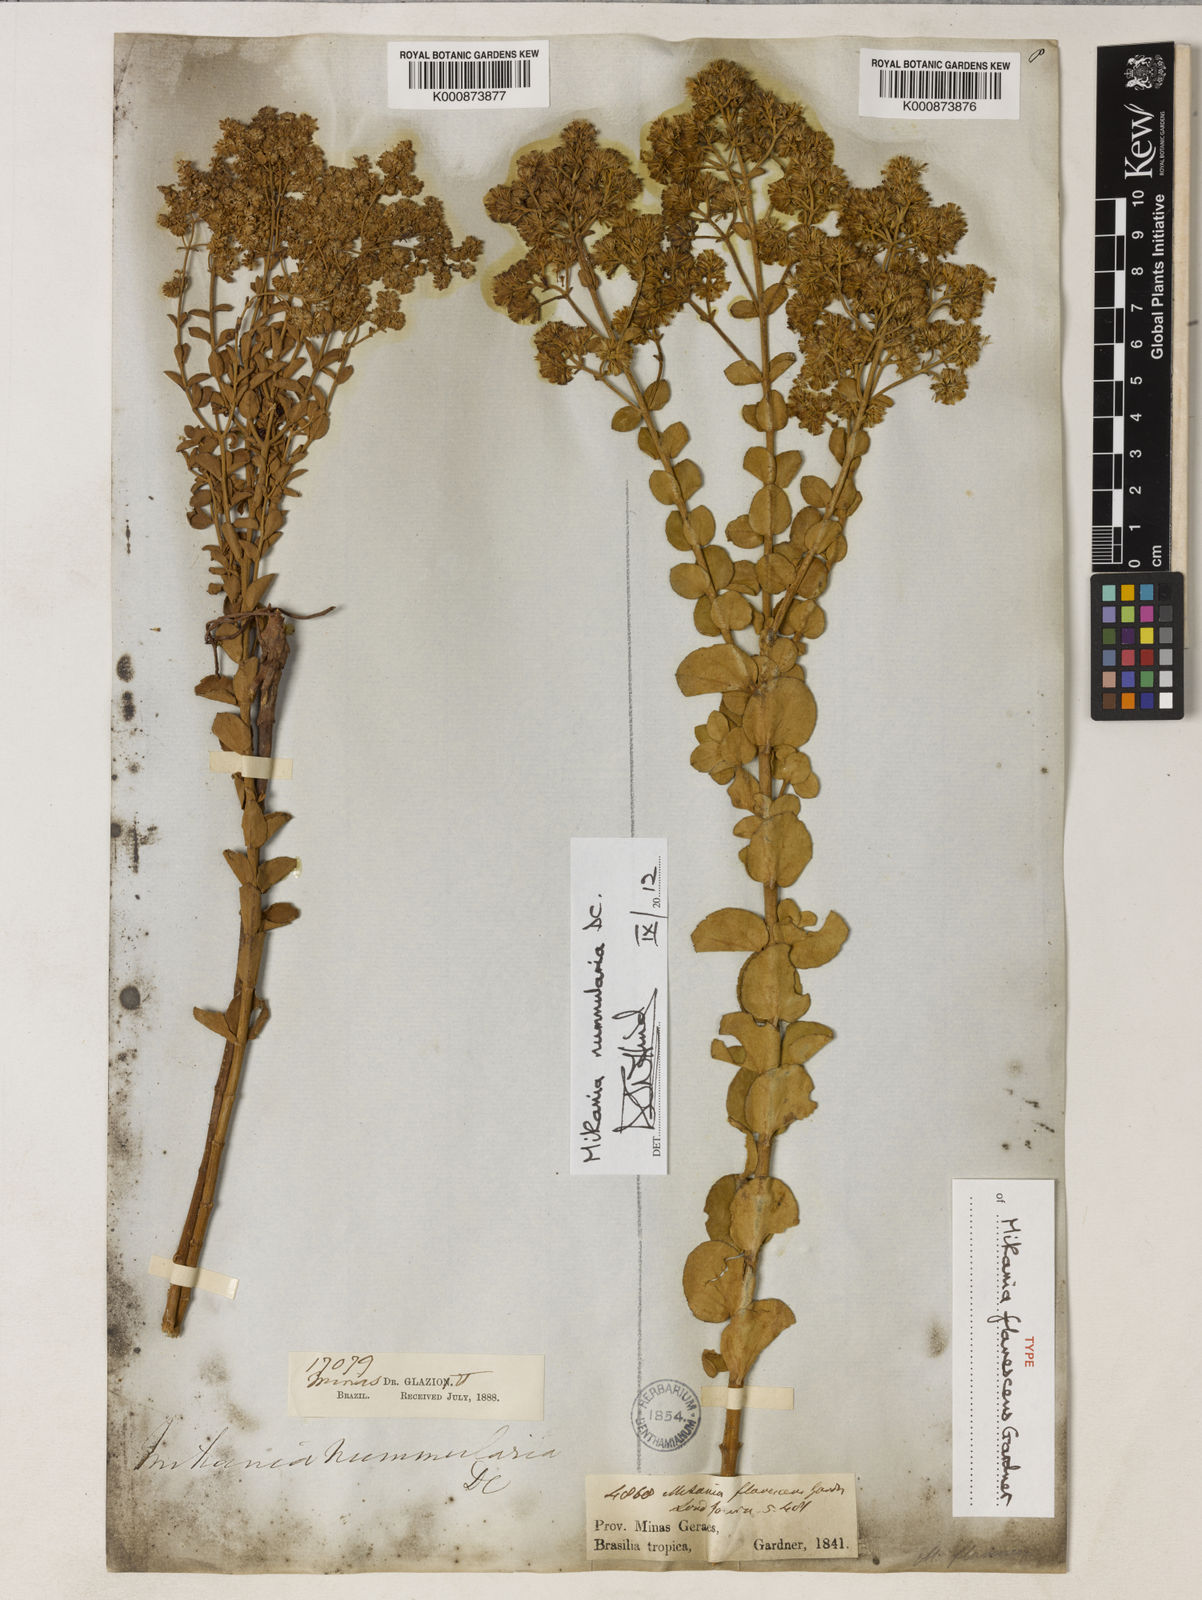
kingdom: Plantae
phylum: Tracheophyta
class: Magnoliopsida
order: Asterales
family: Asteraceae
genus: Mikania
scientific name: Mikania nummularia
